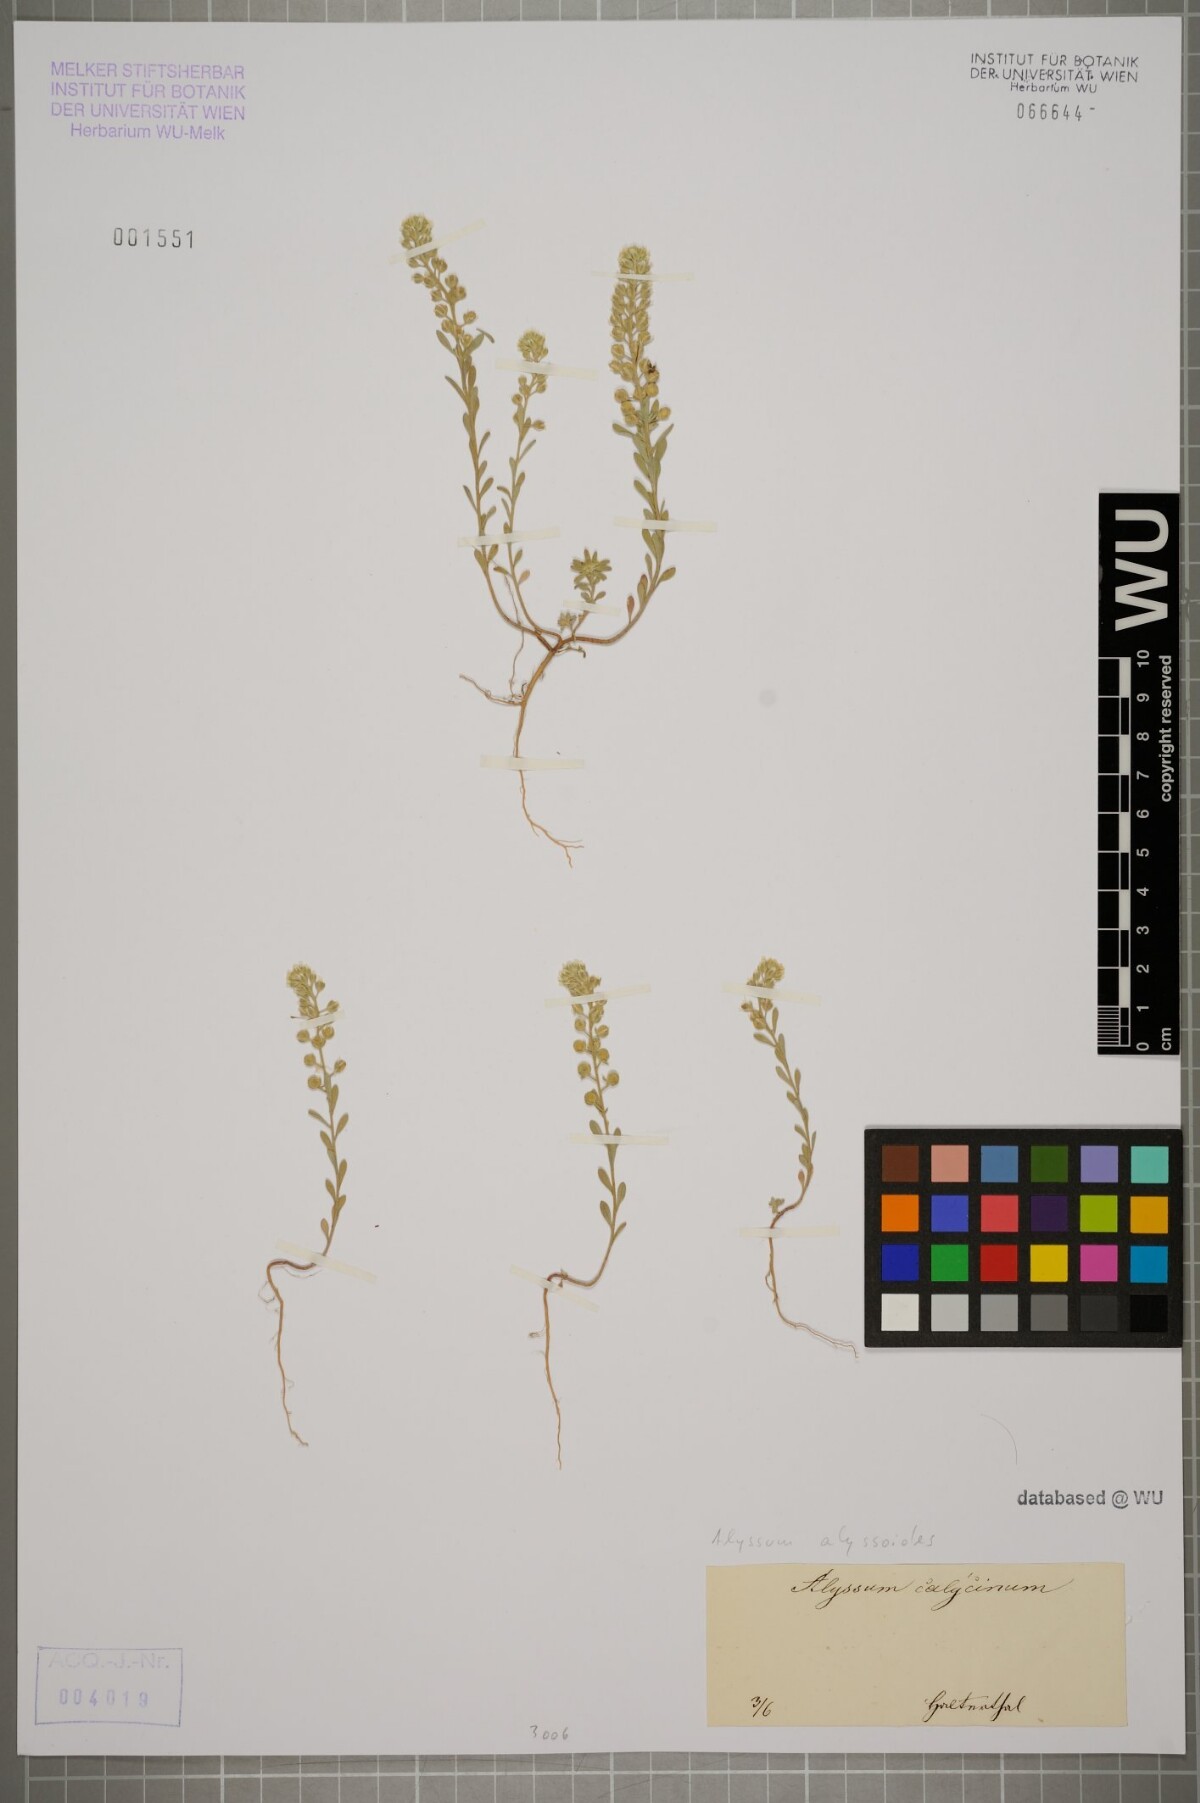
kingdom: Plantae
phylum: Tracheophyta
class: Magnoliopsida
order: Brassicales
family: Brassicaceae
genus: Alyssum
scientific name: Alyssum alyssoides
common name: Small alison
